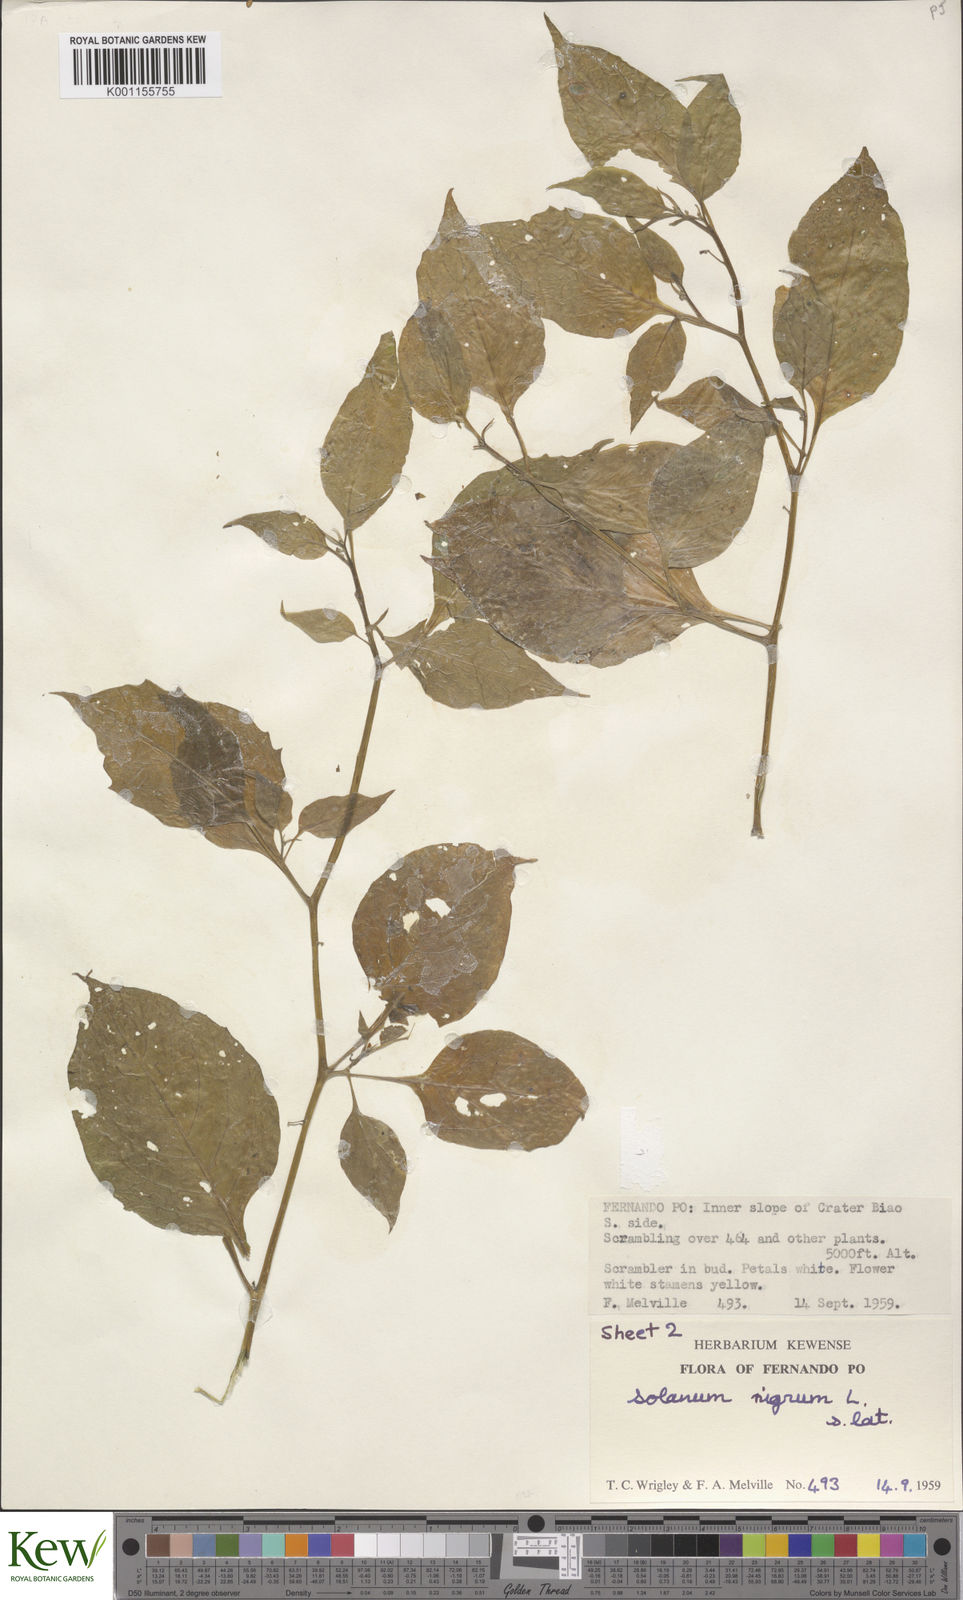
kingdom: Plantae
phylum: Tracheophyta
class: Magnoliopsida
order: Solanales
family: Solanaceae
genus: Solanum
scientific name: Solanum scabrum
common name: Garden-huckleberry
